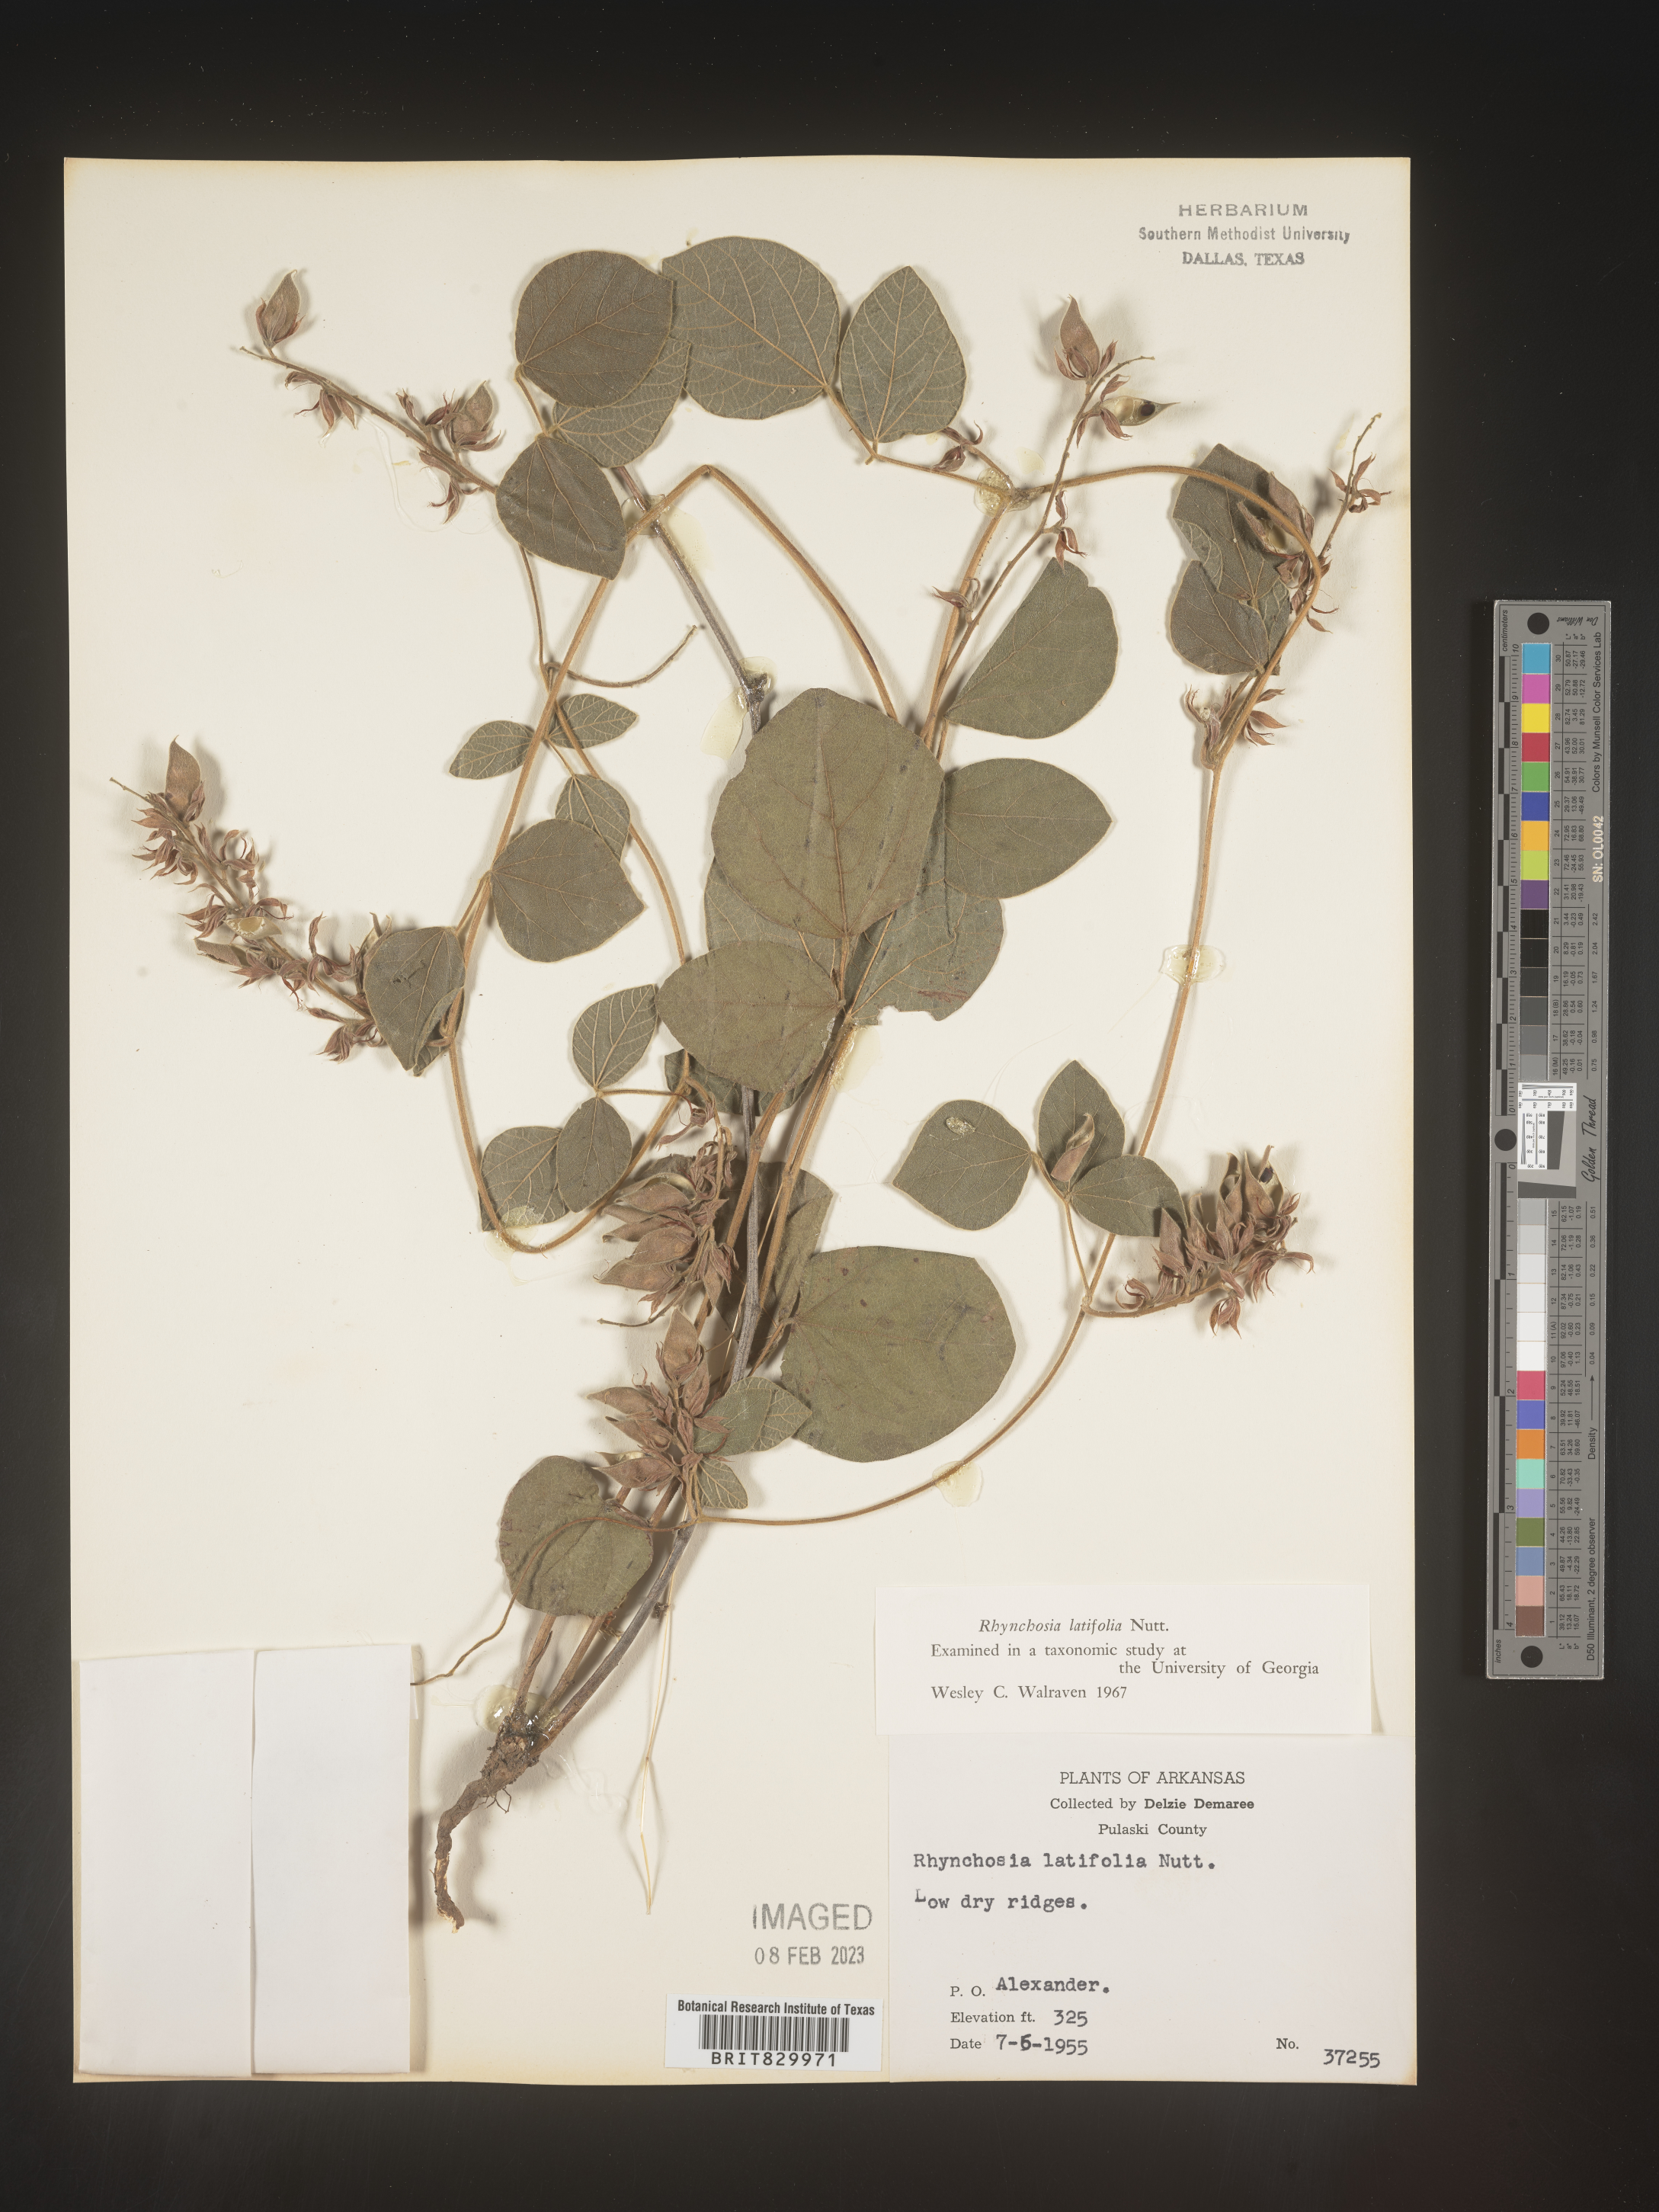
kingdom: Plantae
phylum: Tracheophyta
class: Magnoliopsida
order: Fabales
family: Fabaceae
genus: Rhynchosia
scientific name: Rhynchosia latifolia
